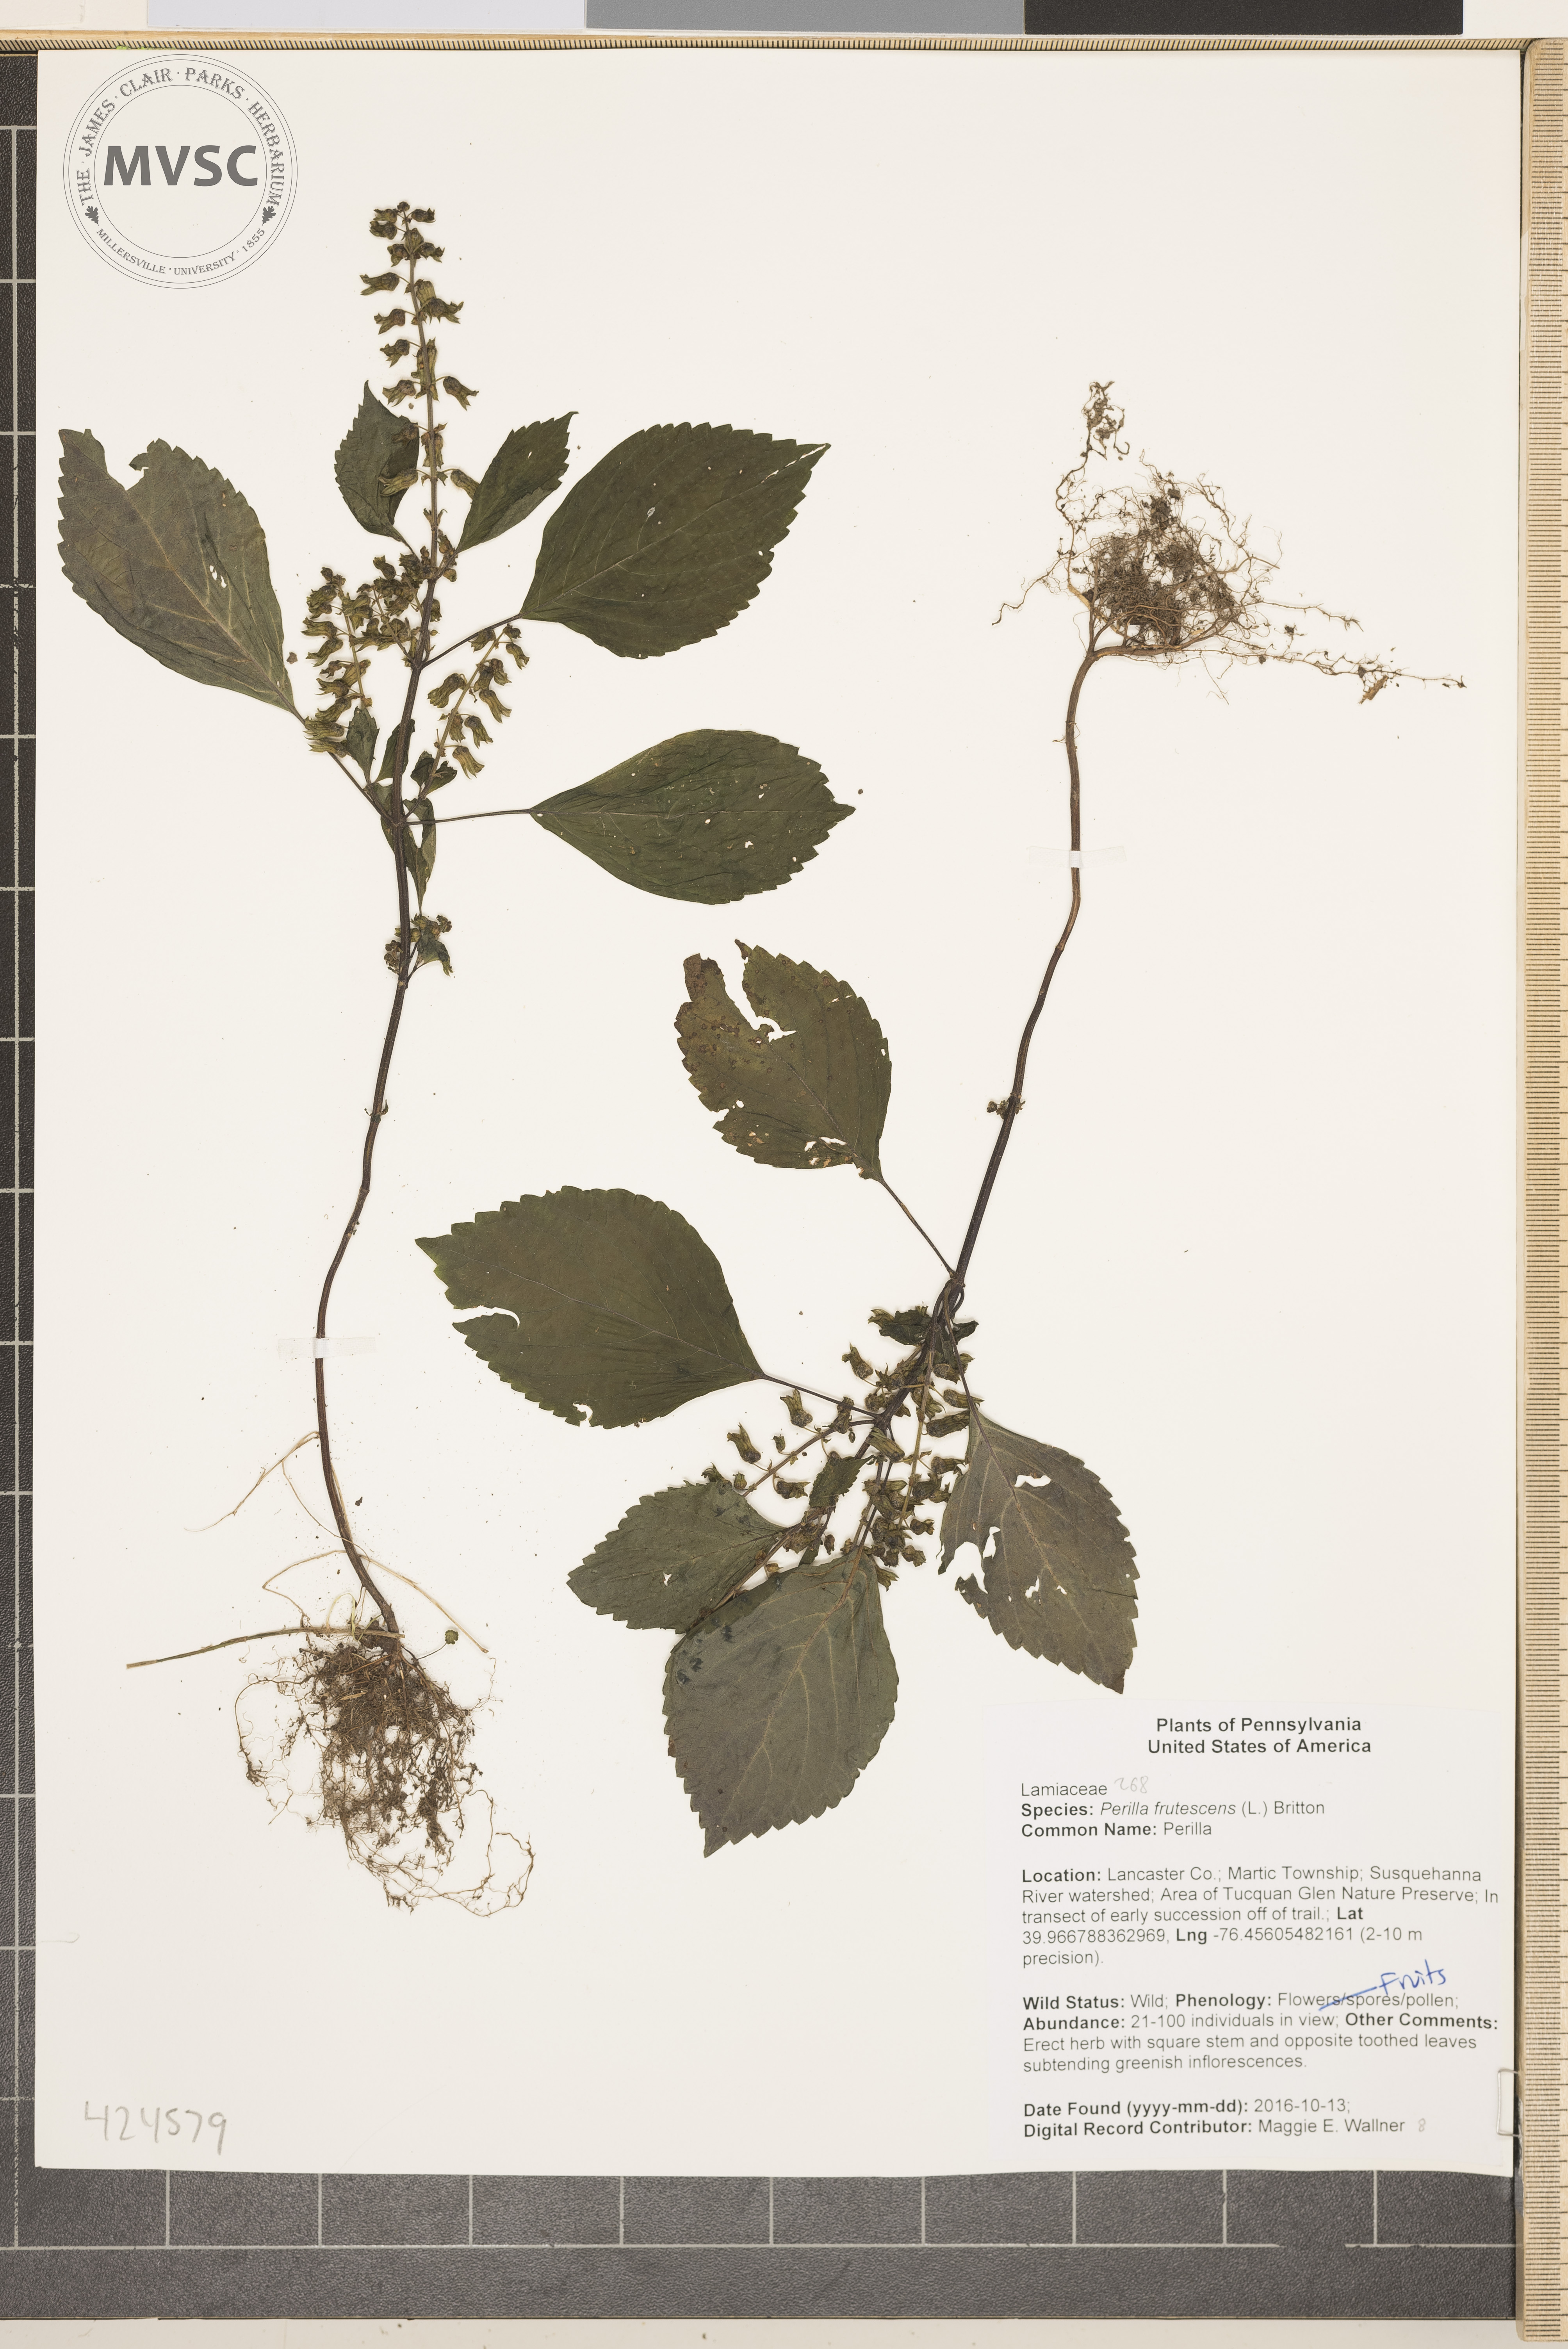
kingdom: Plantae
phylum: Tracheophyta
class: Magnoliopsida
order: Lamiales
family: Lamiaceae
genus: Perilla
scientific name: Perilla frutescens
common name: Perilla
